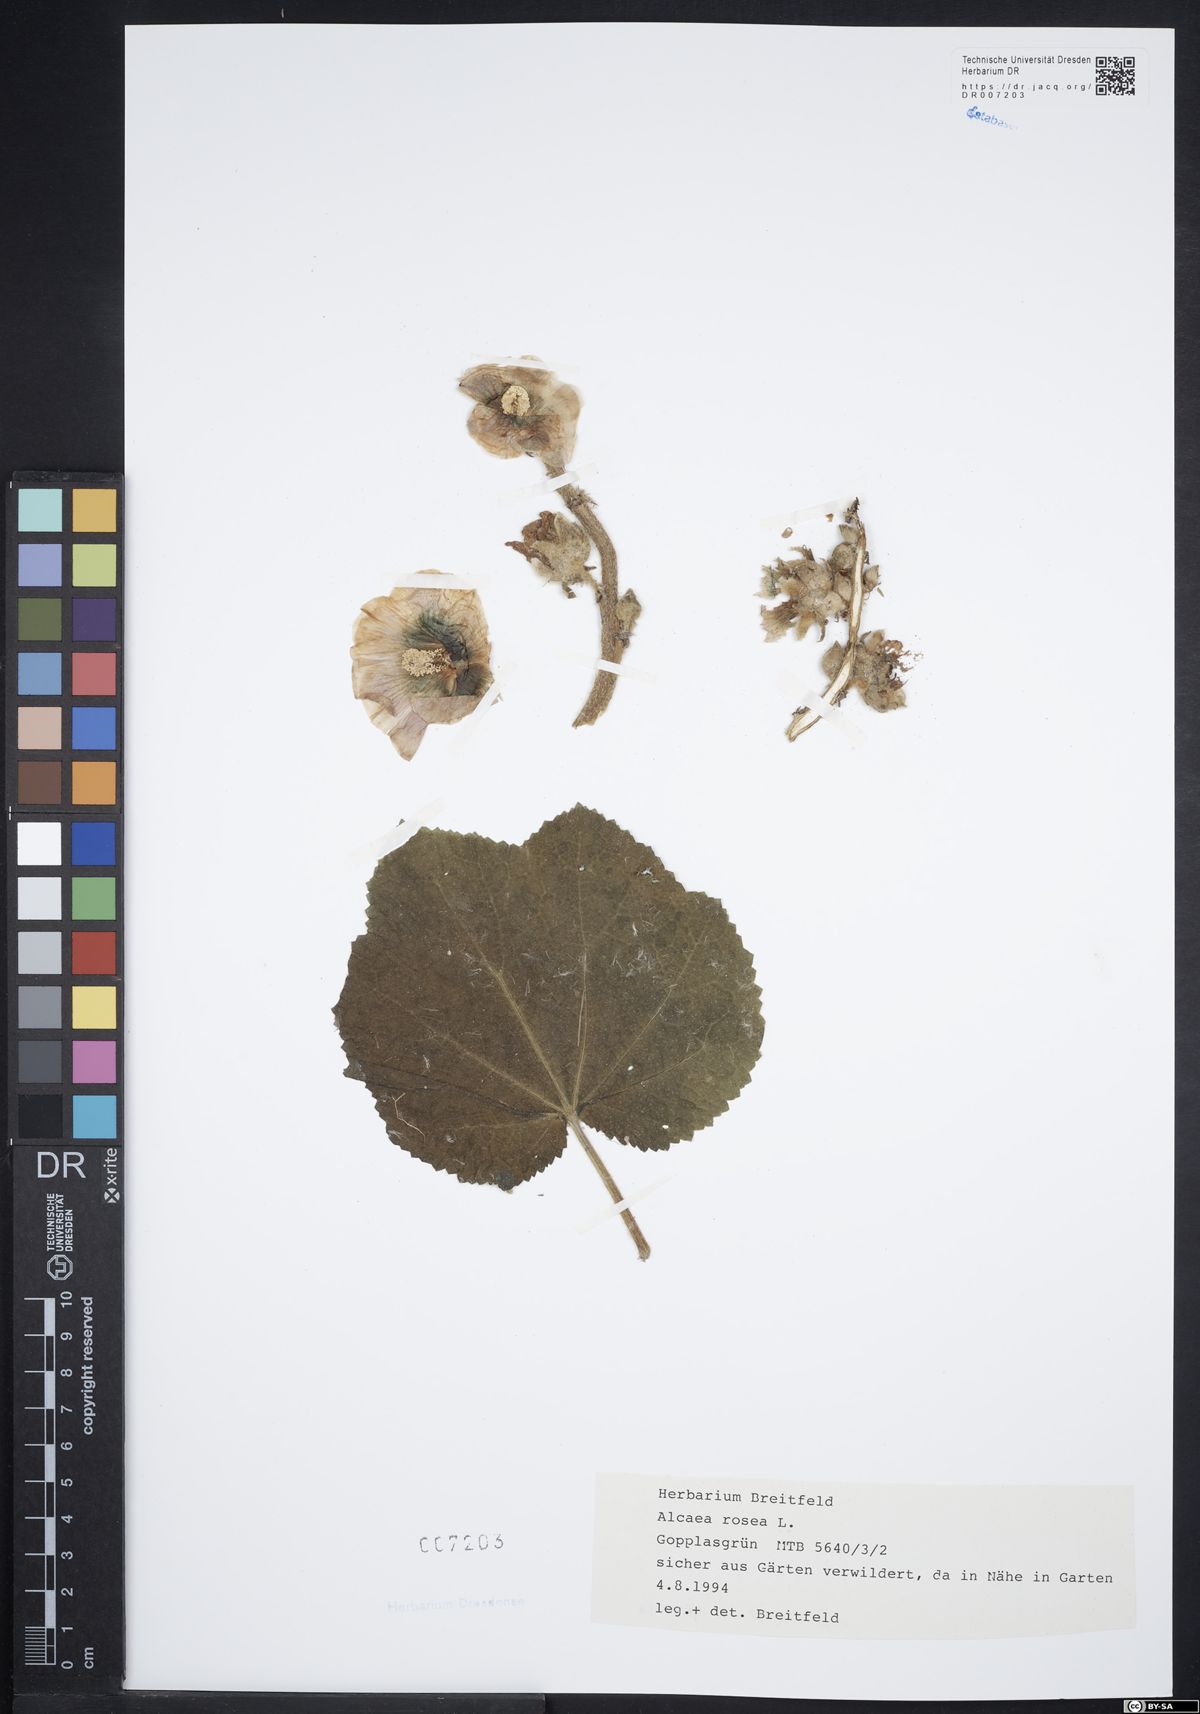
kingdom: Plantae
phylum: Tracheophyta
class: Magnoliopsida
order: Malvales
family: Malvaceae
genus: Alcea
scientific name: Alcea rosea
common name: Hollyhock
